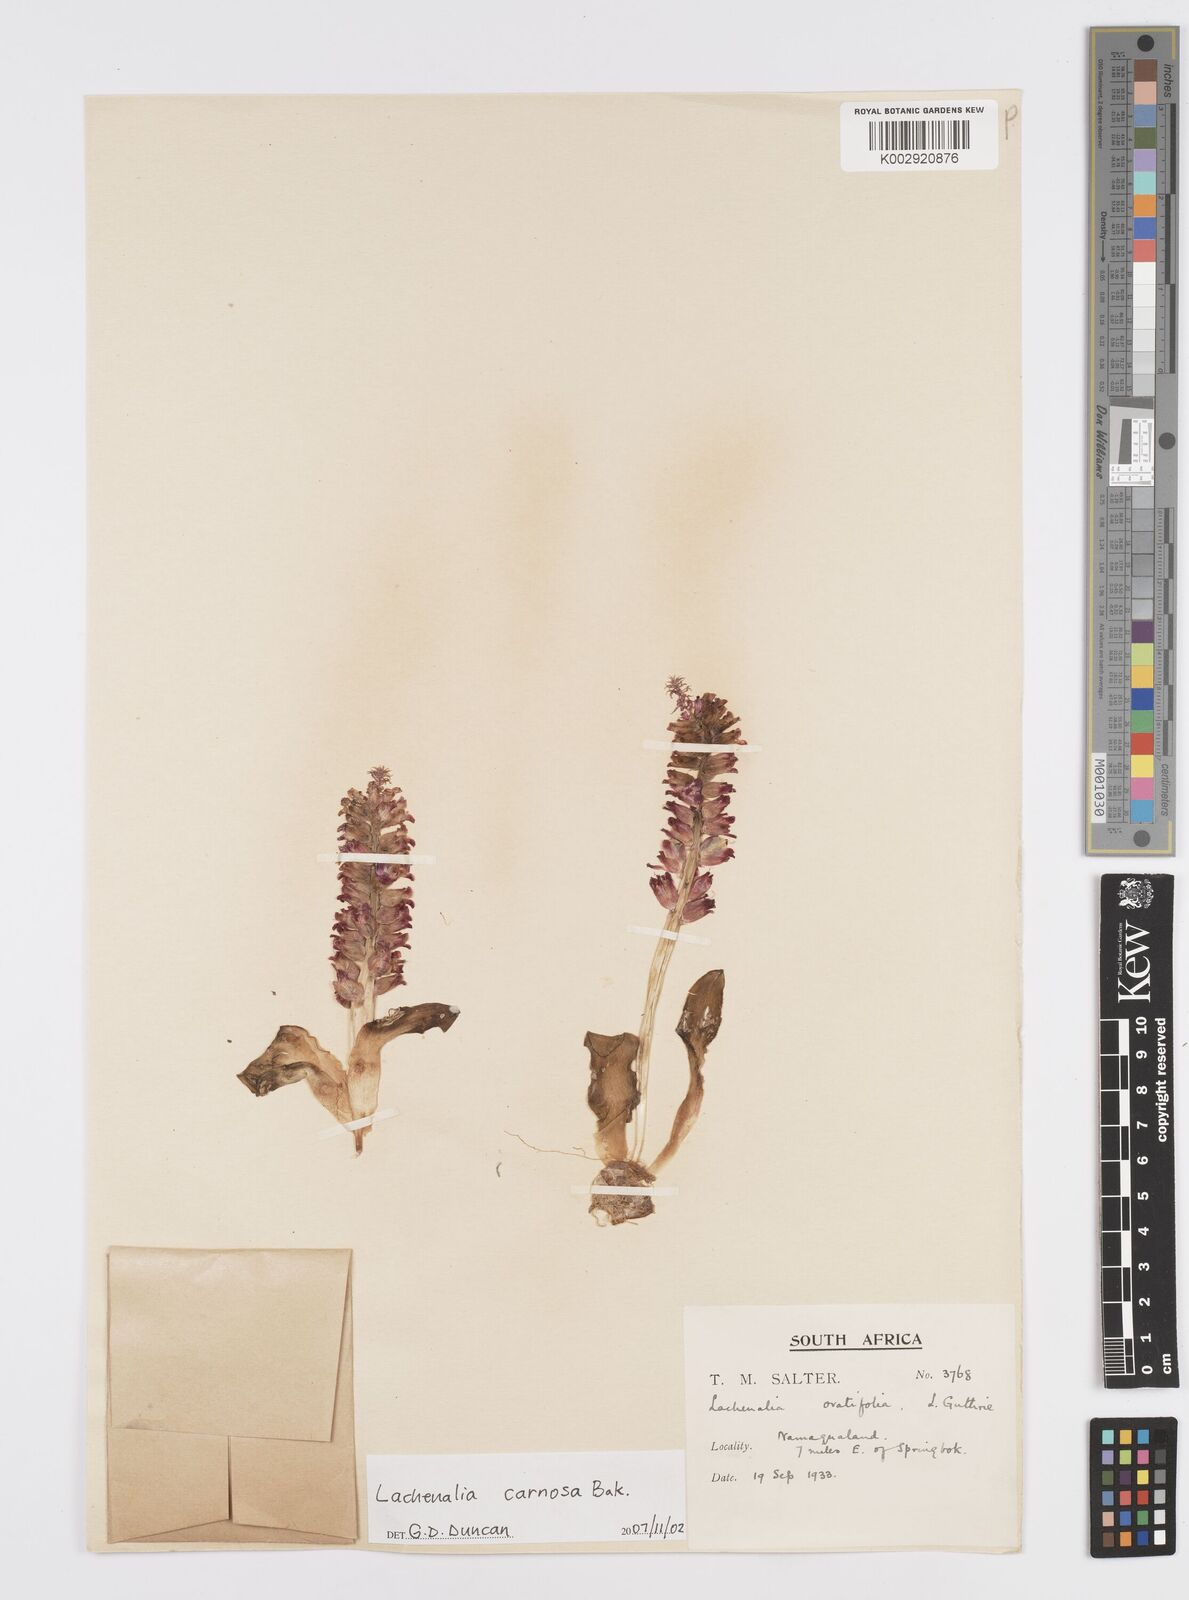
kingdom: Plantae
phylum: Tracheophyta
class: Liliopsida
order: Asparagales
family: Asparagaceae
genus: Lachenalia
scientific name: Lachenalia carnosa
